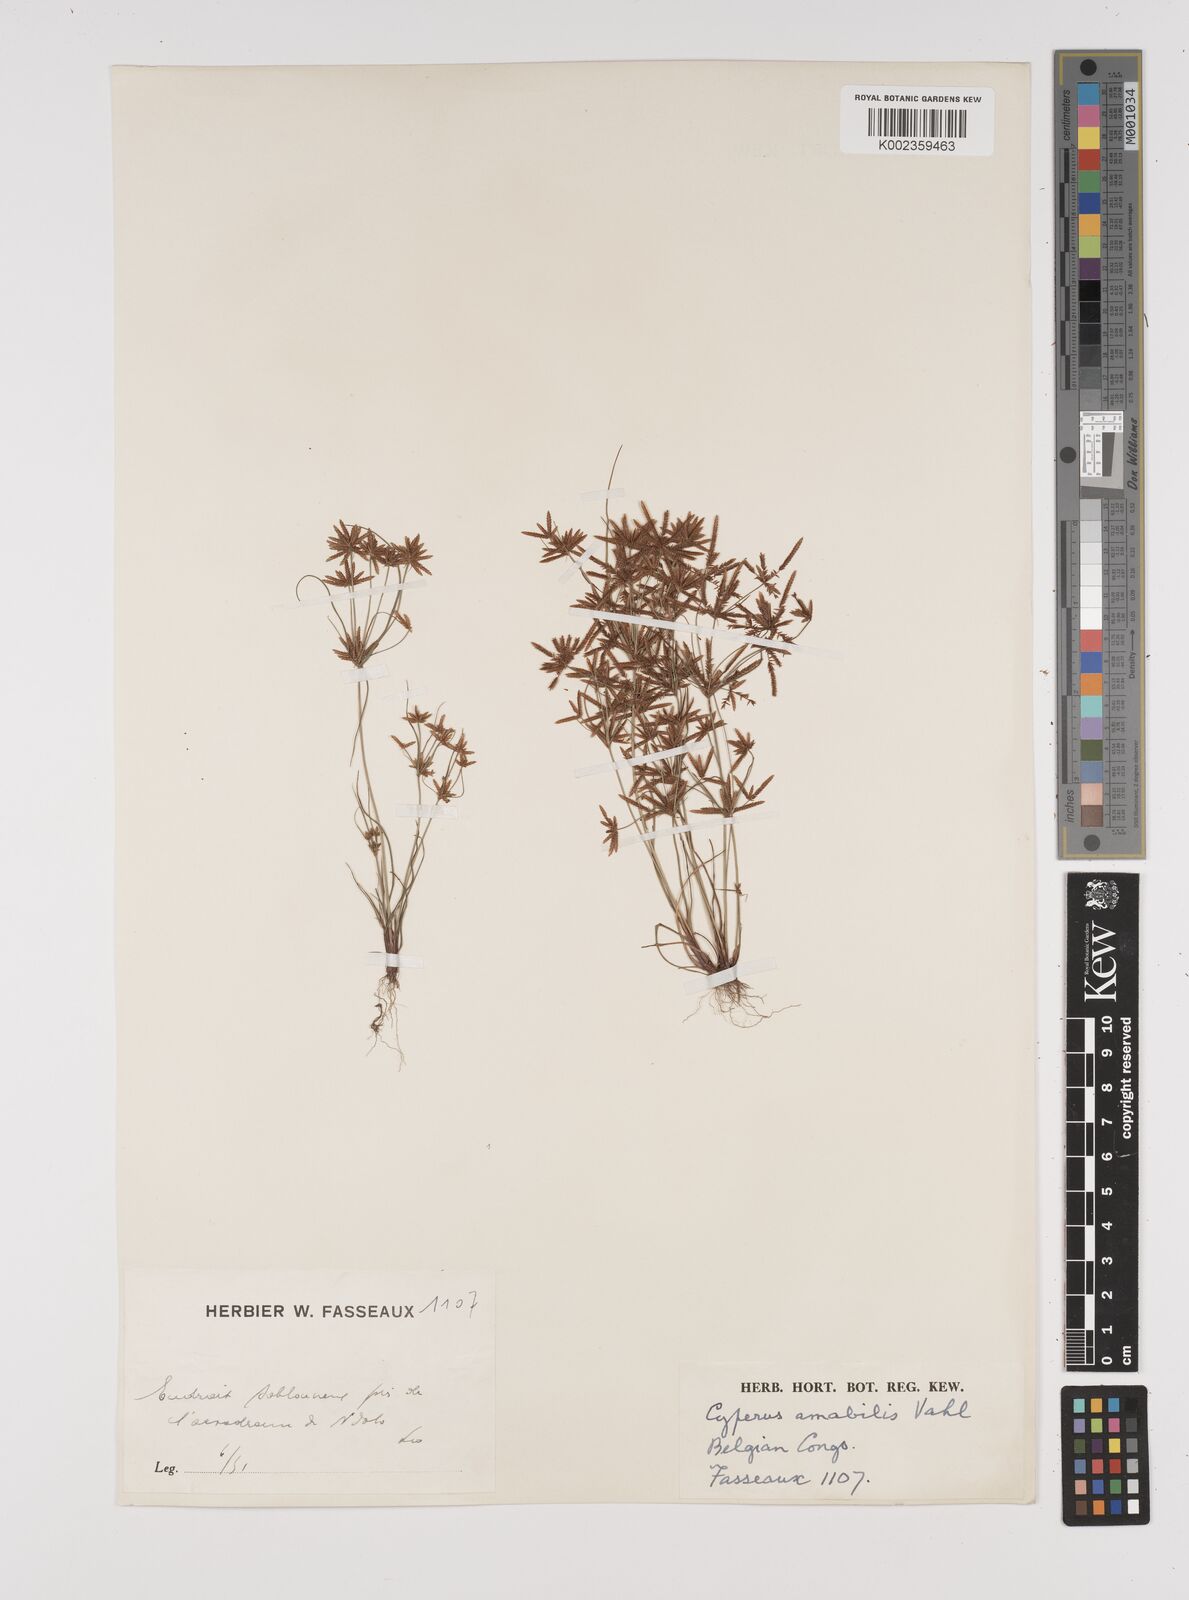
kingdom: Plantae
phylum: Tracheophyta
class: Liliopsida
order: Poales
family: Cyperaceae
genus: Cyperus
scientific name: Cyperus amabilis
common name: Foothill flat sedge
